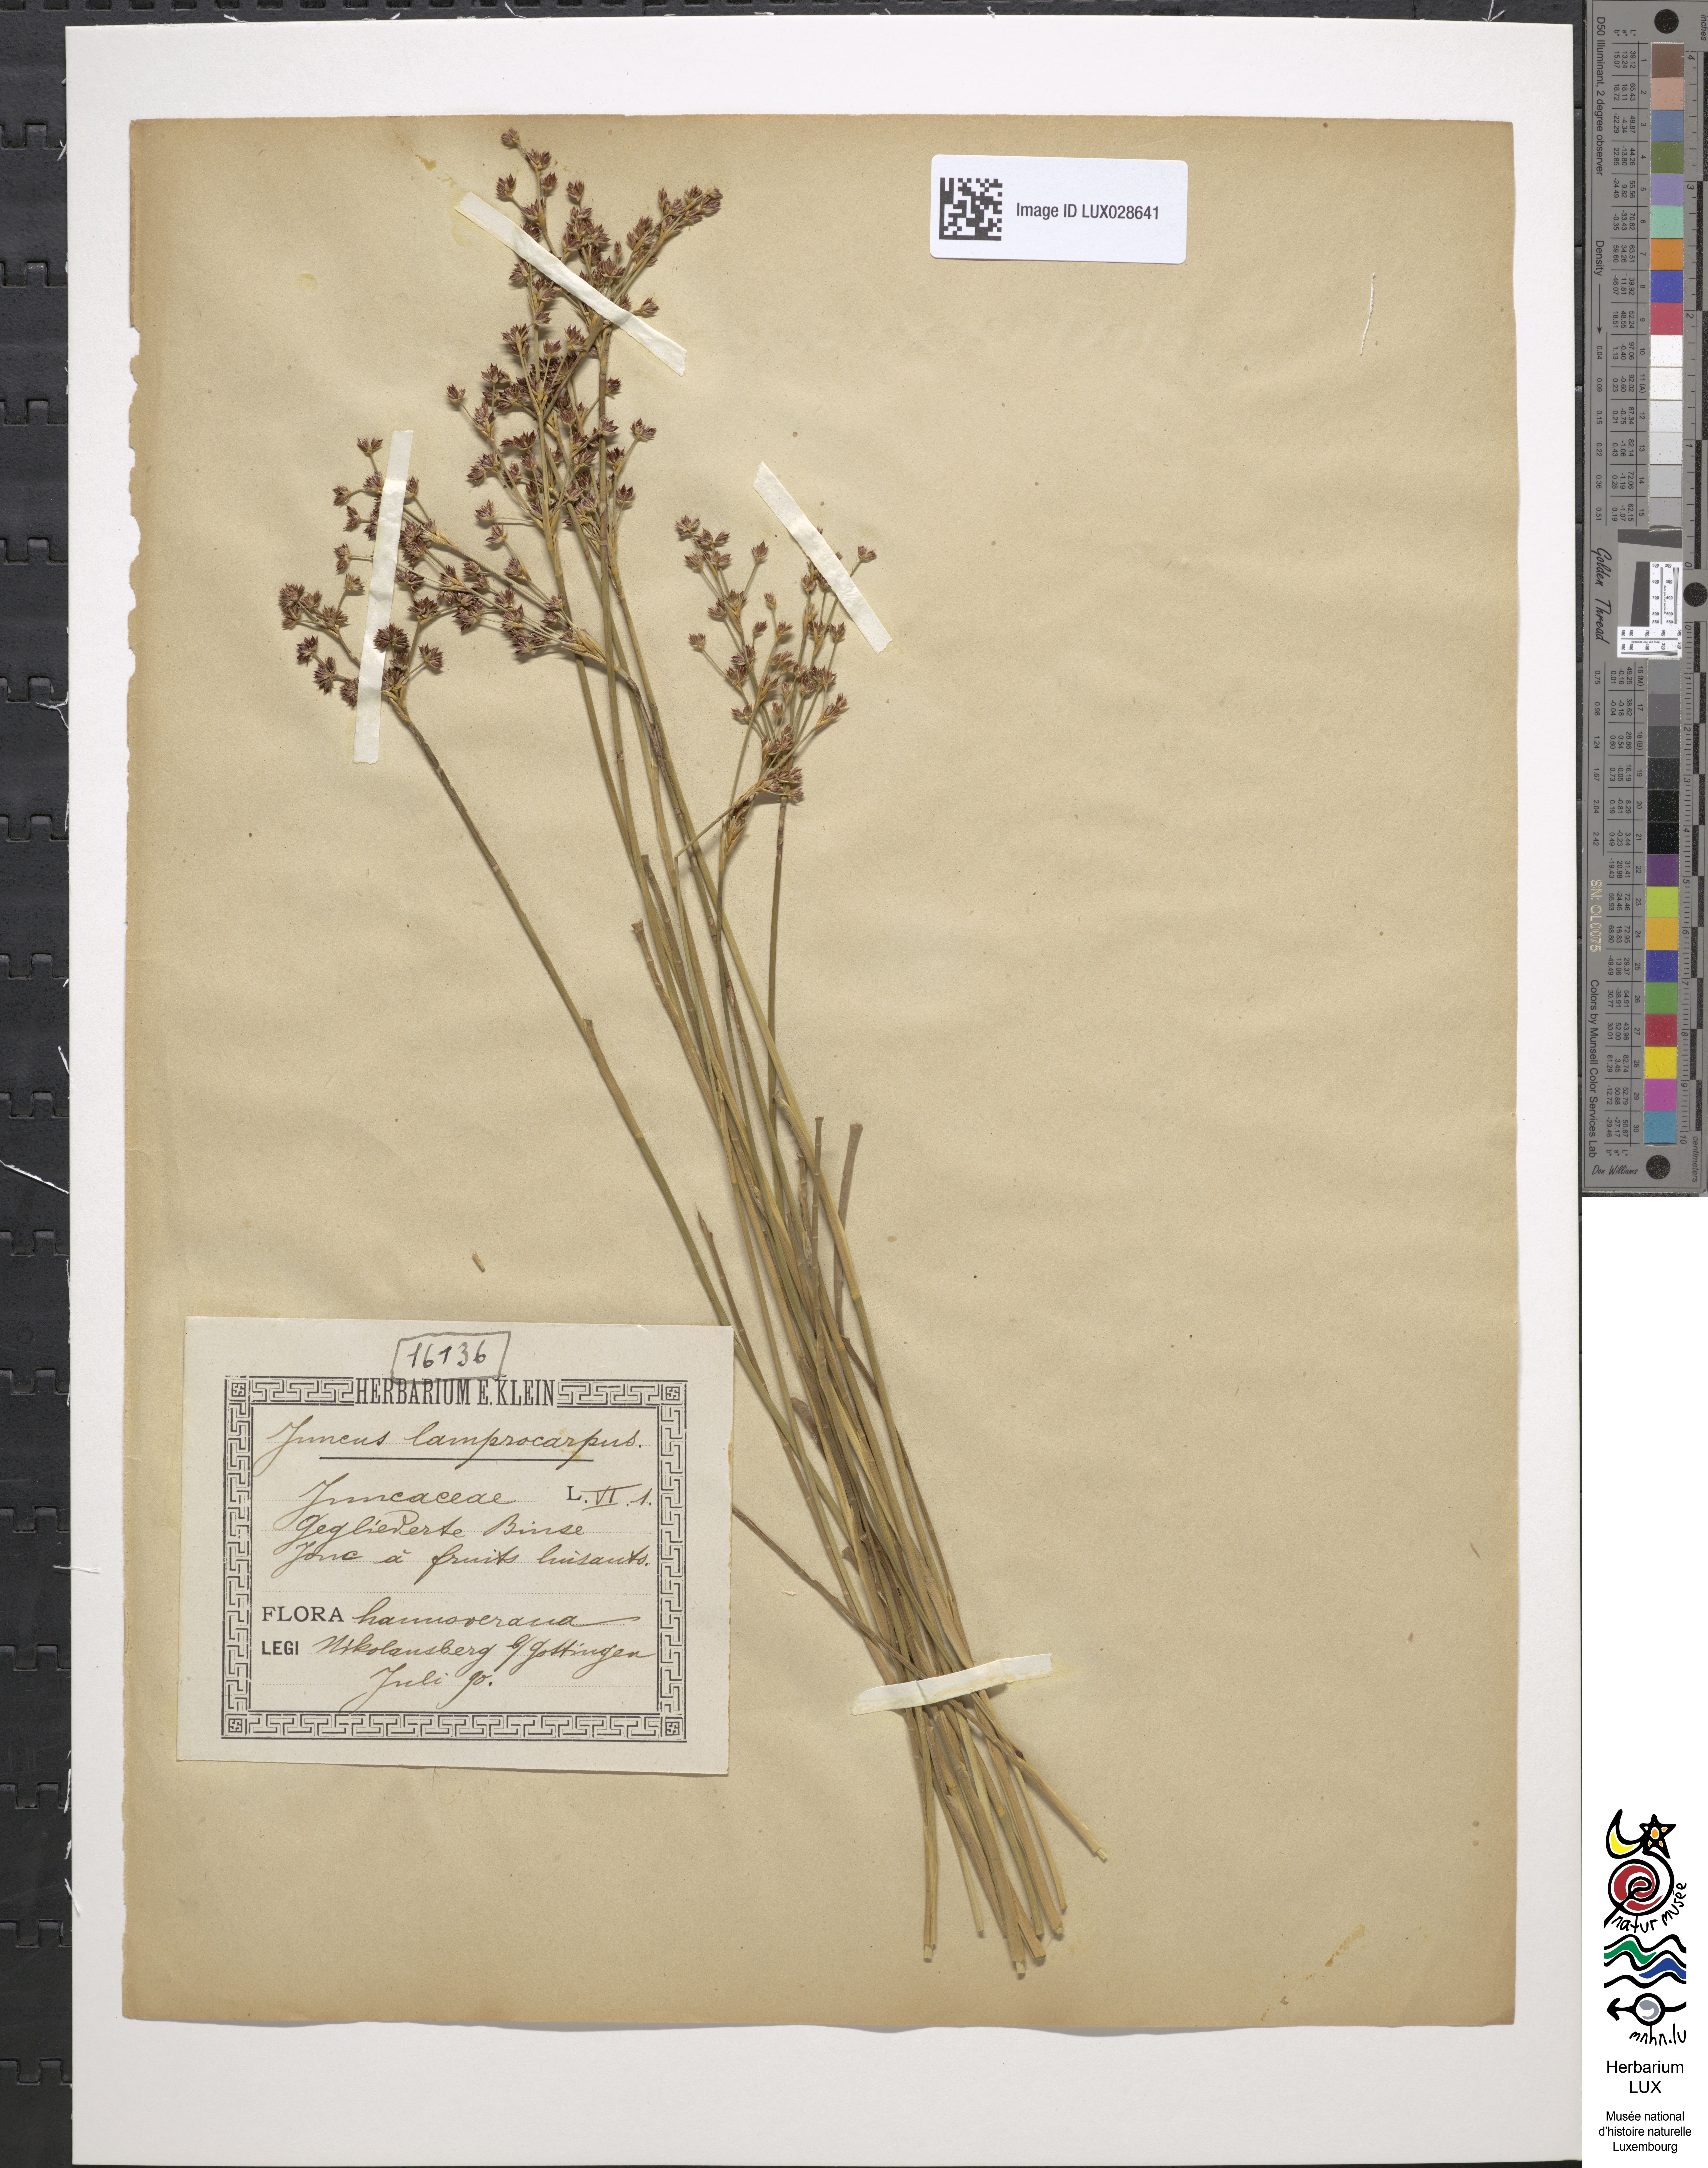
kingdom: Plantae
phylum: Tracheophyta
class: Liliopsida
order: Poales
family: Juncaceae
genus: Juncus
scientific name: Juncus articulatus
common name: Jointed rush
